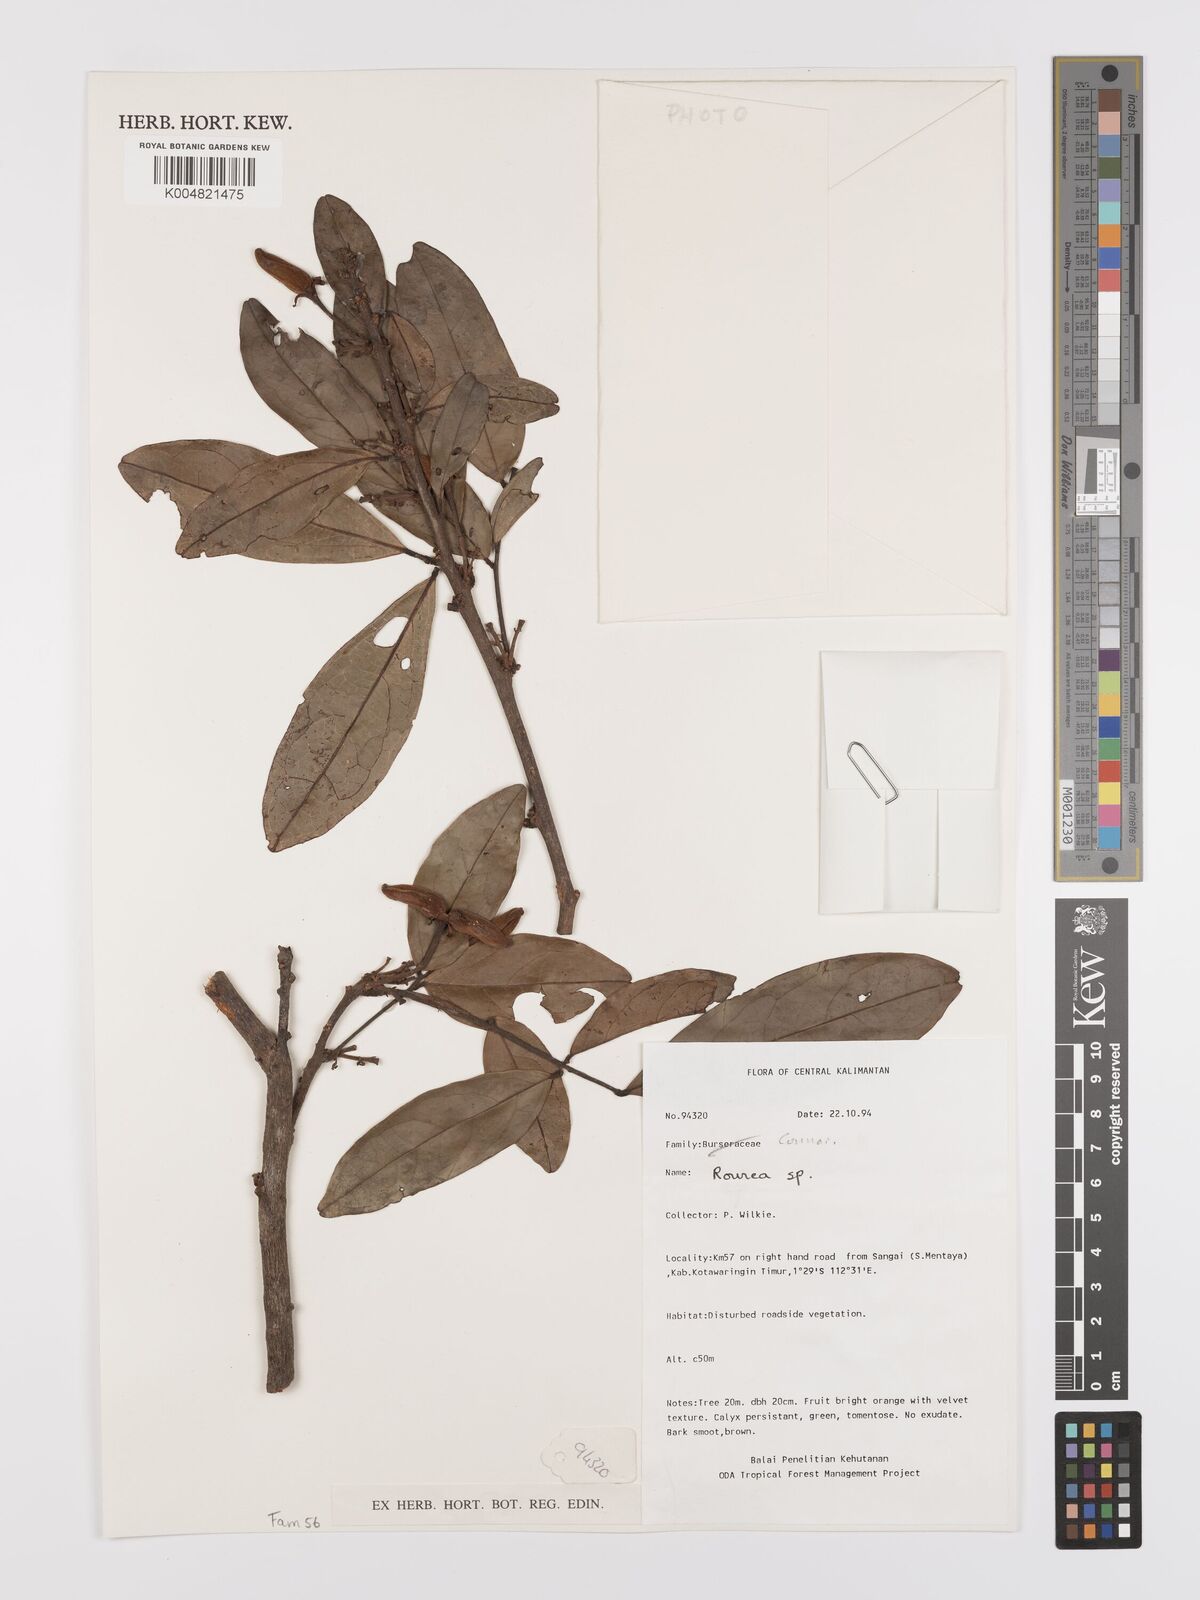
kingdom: Plantae
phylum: Tracheophyta
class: Magnoliopsida
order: Oxalidales
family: Connaraceae
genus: Rourea
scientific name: Rourea
